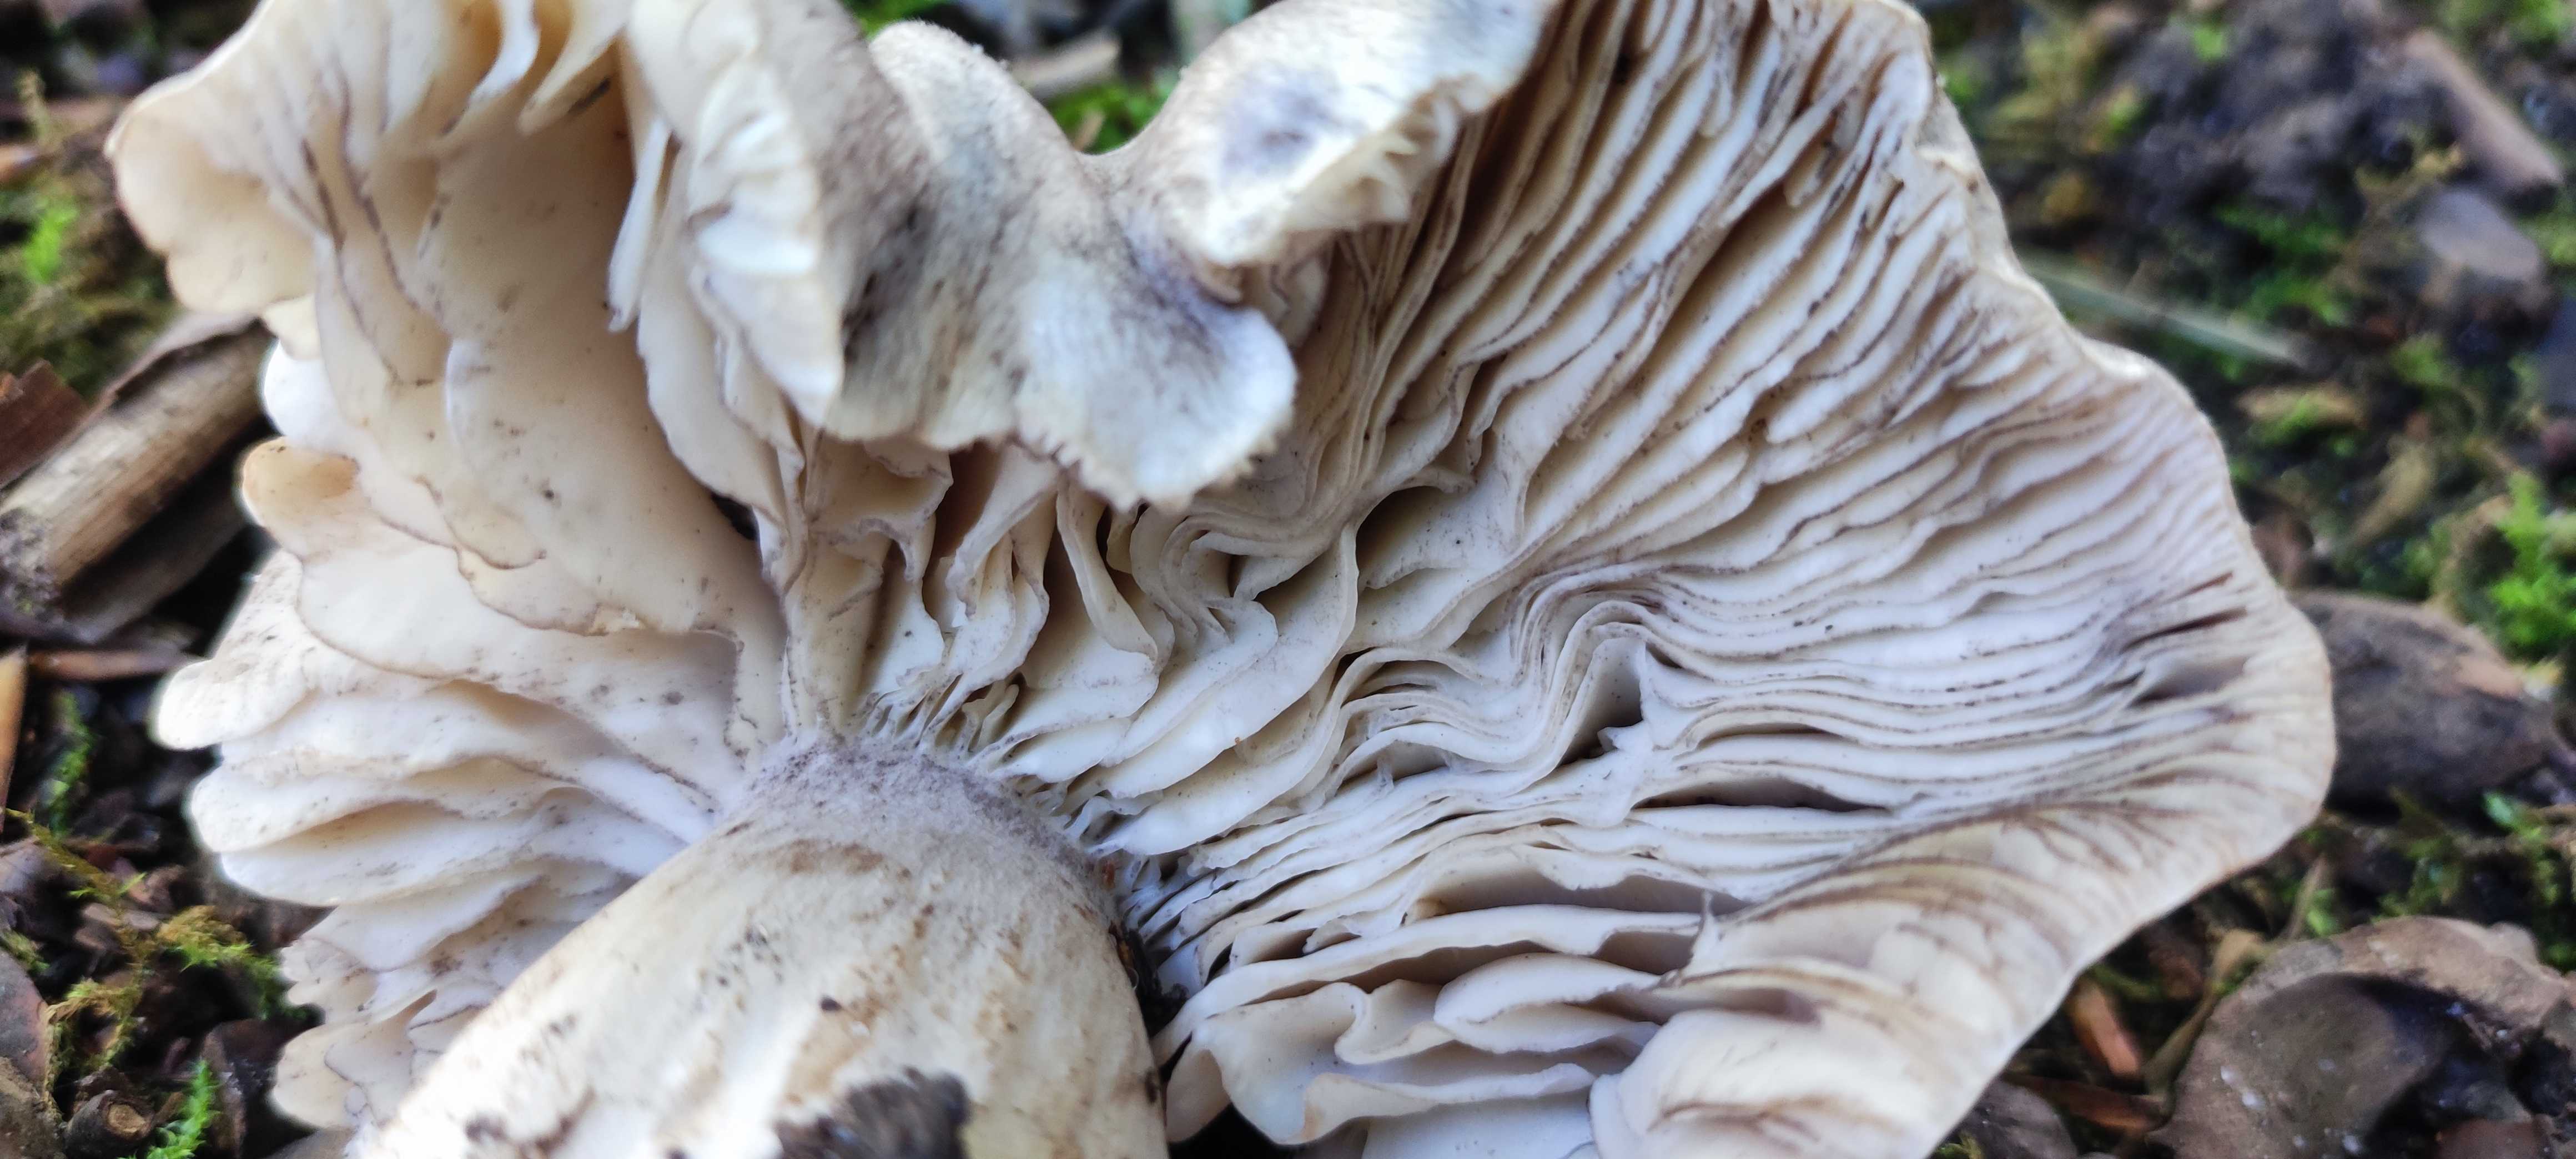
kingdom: Fungi
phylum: Basidiomycota
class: Agaricomycetes
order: Agaricales
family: Tricholomataceae
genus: Tricholoma
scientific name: Tricholoma sciodes
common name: stribet ridderhat
